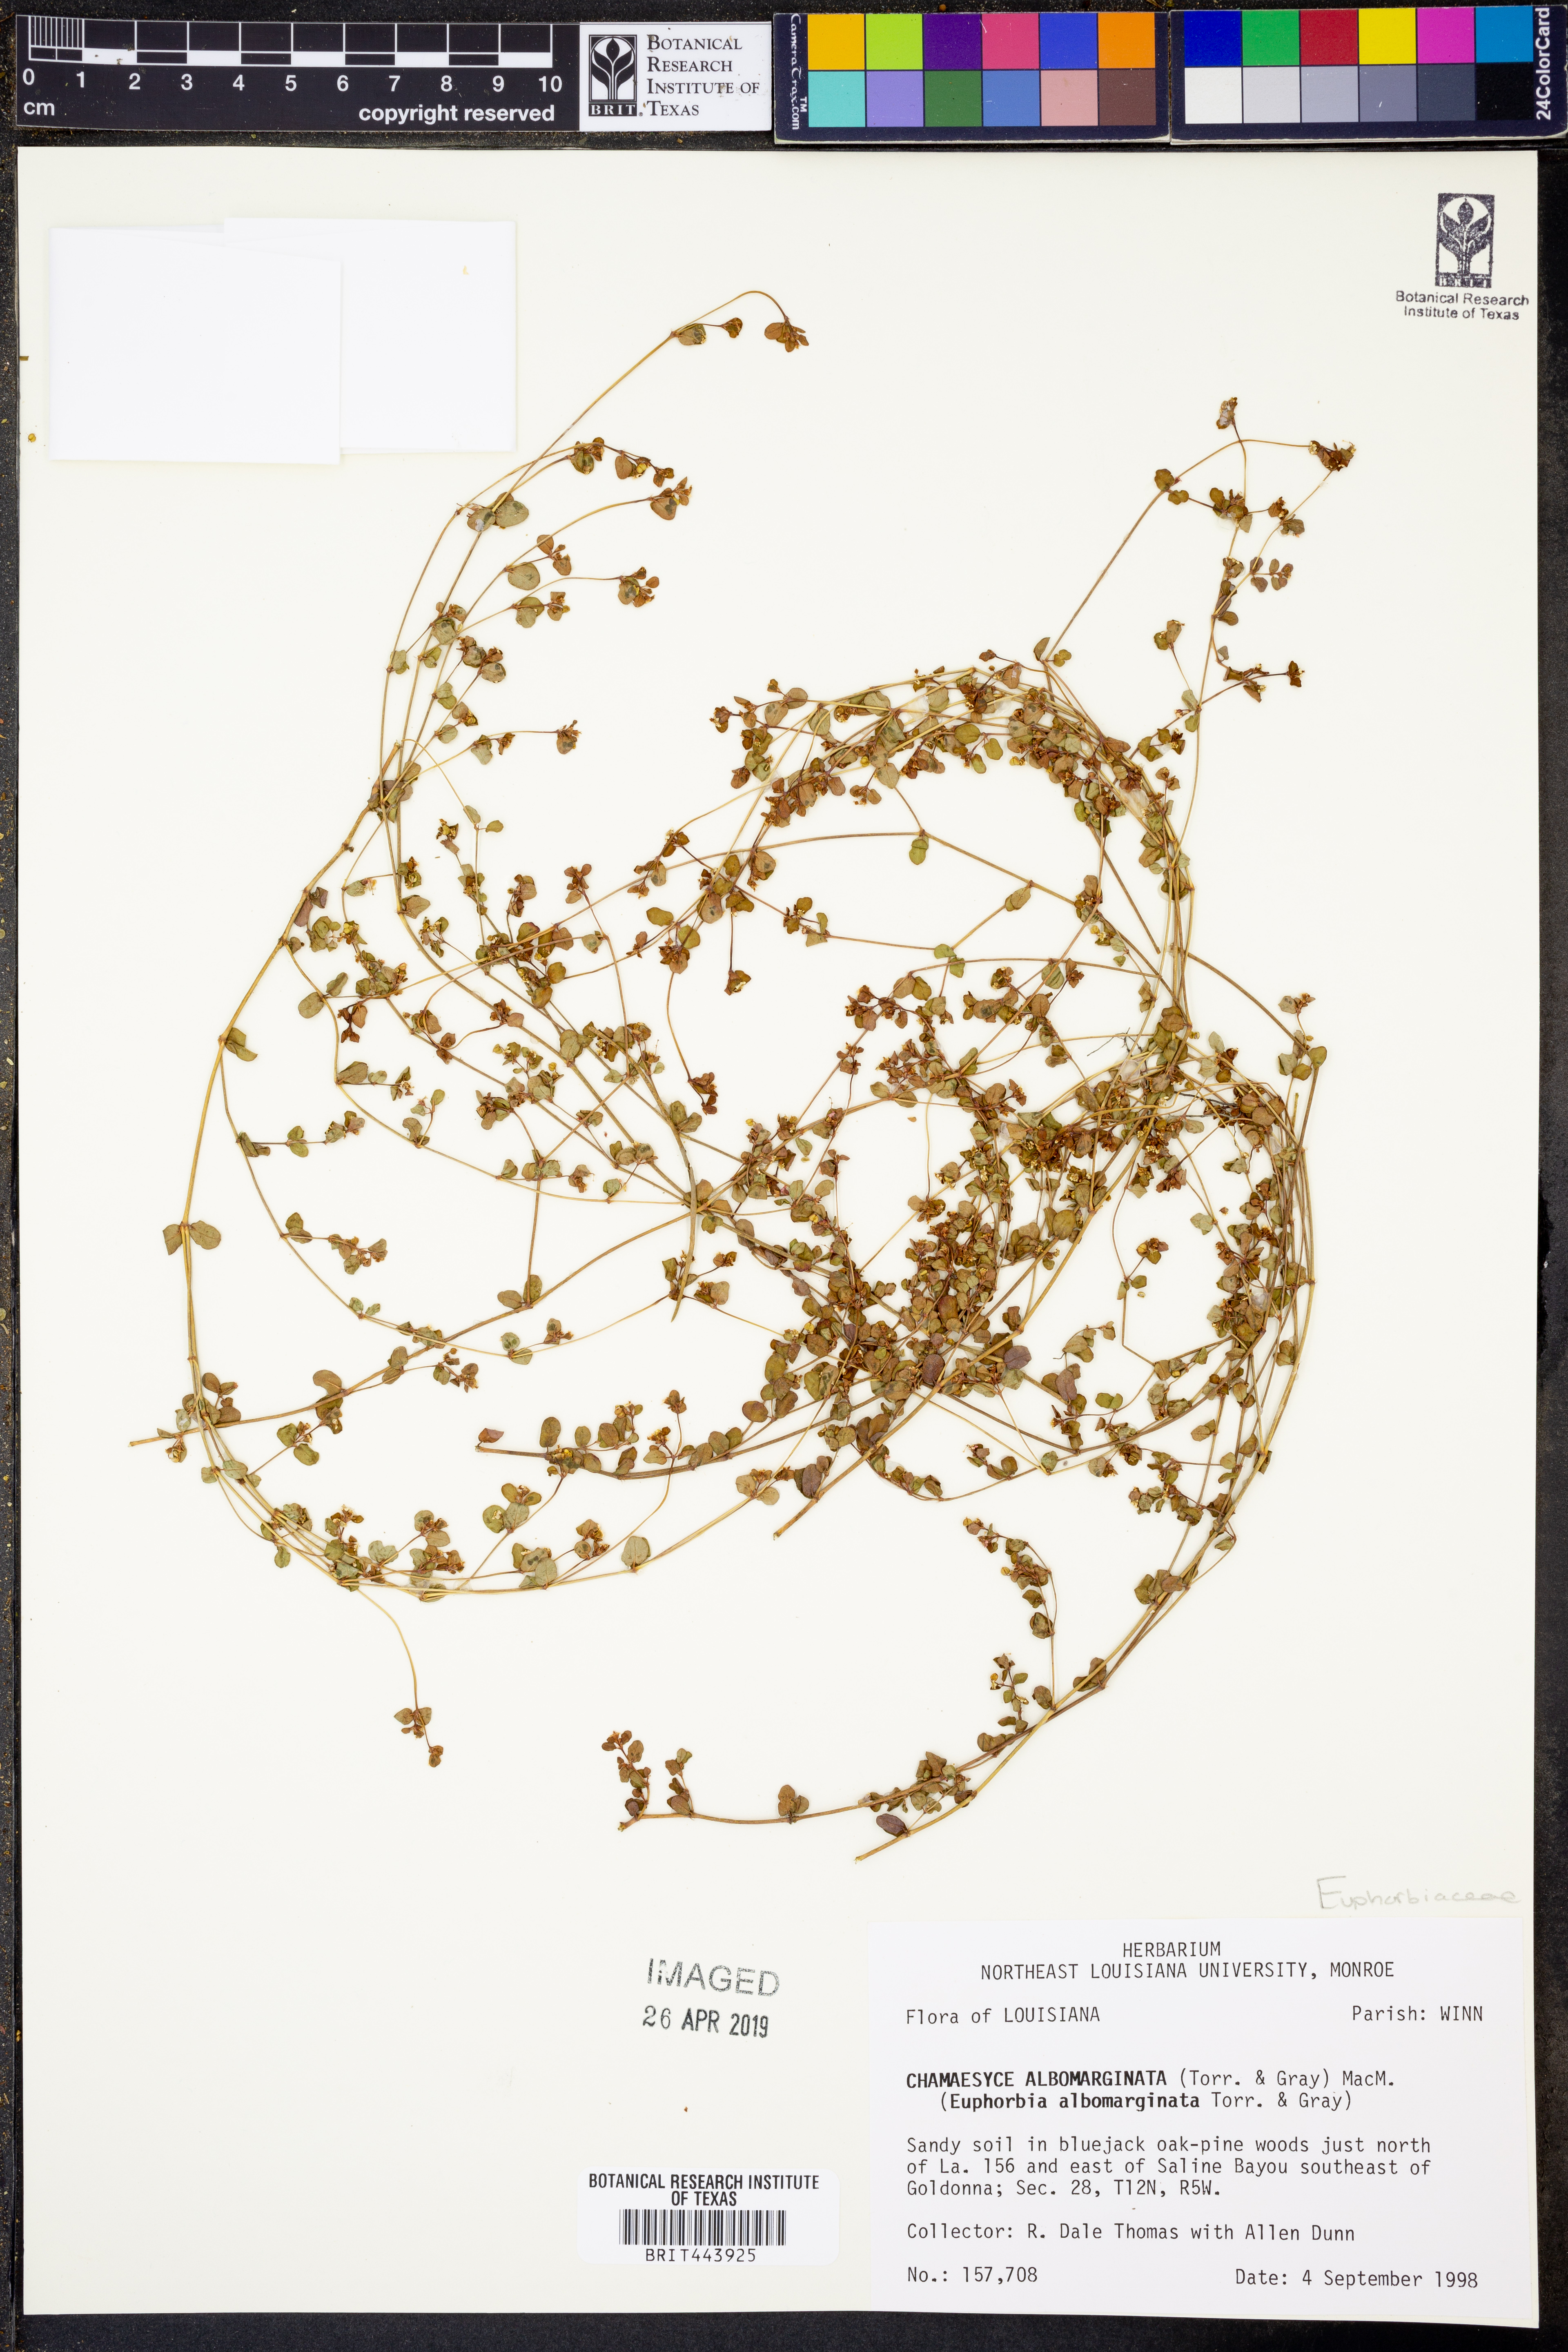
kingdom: Plantae
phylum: Tracheophyta
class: Magnoliopsida
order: Malpighiales
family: Euphorbiaceae
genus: Euphorbia
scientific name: Euphorbia albomarginata
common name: Whitemargin sandmat
